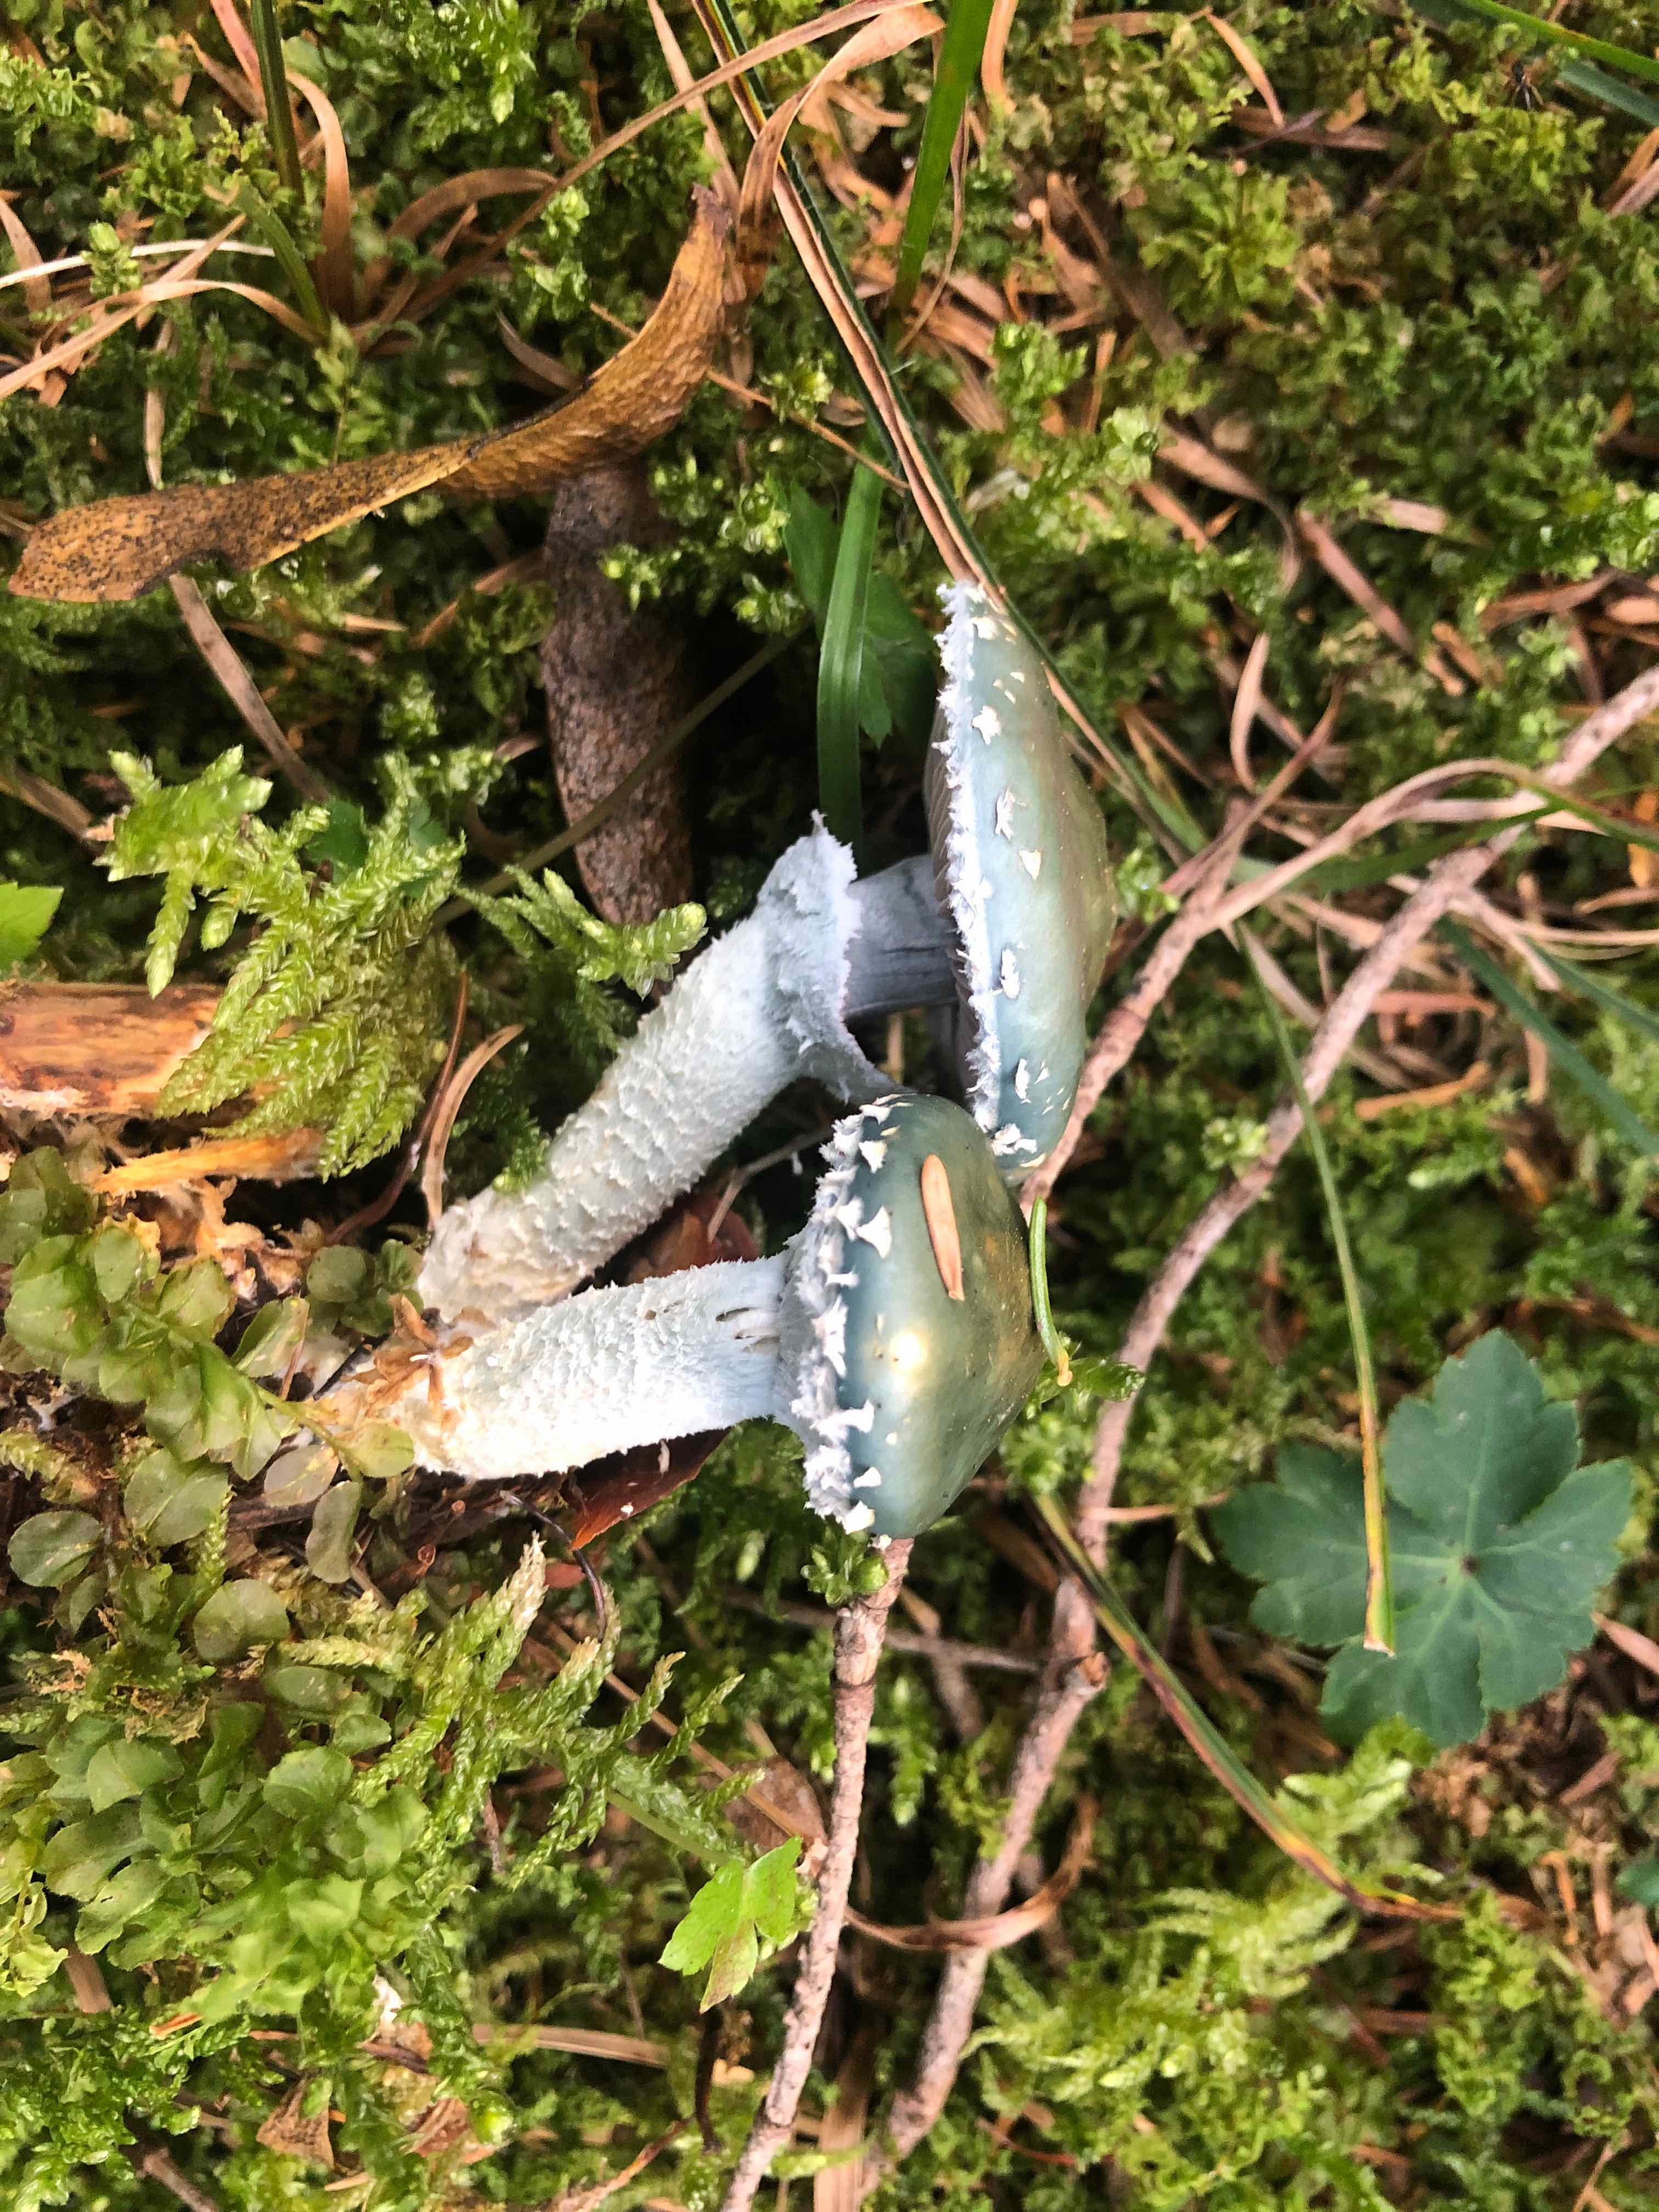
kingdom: Fungi
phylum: Basidiomycota
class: Agaricomycetes
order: Agaricales
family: Strophariaceae
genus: Stropharia
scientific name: Stropharia aeruginosa
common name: spanskgrøn bredblad
